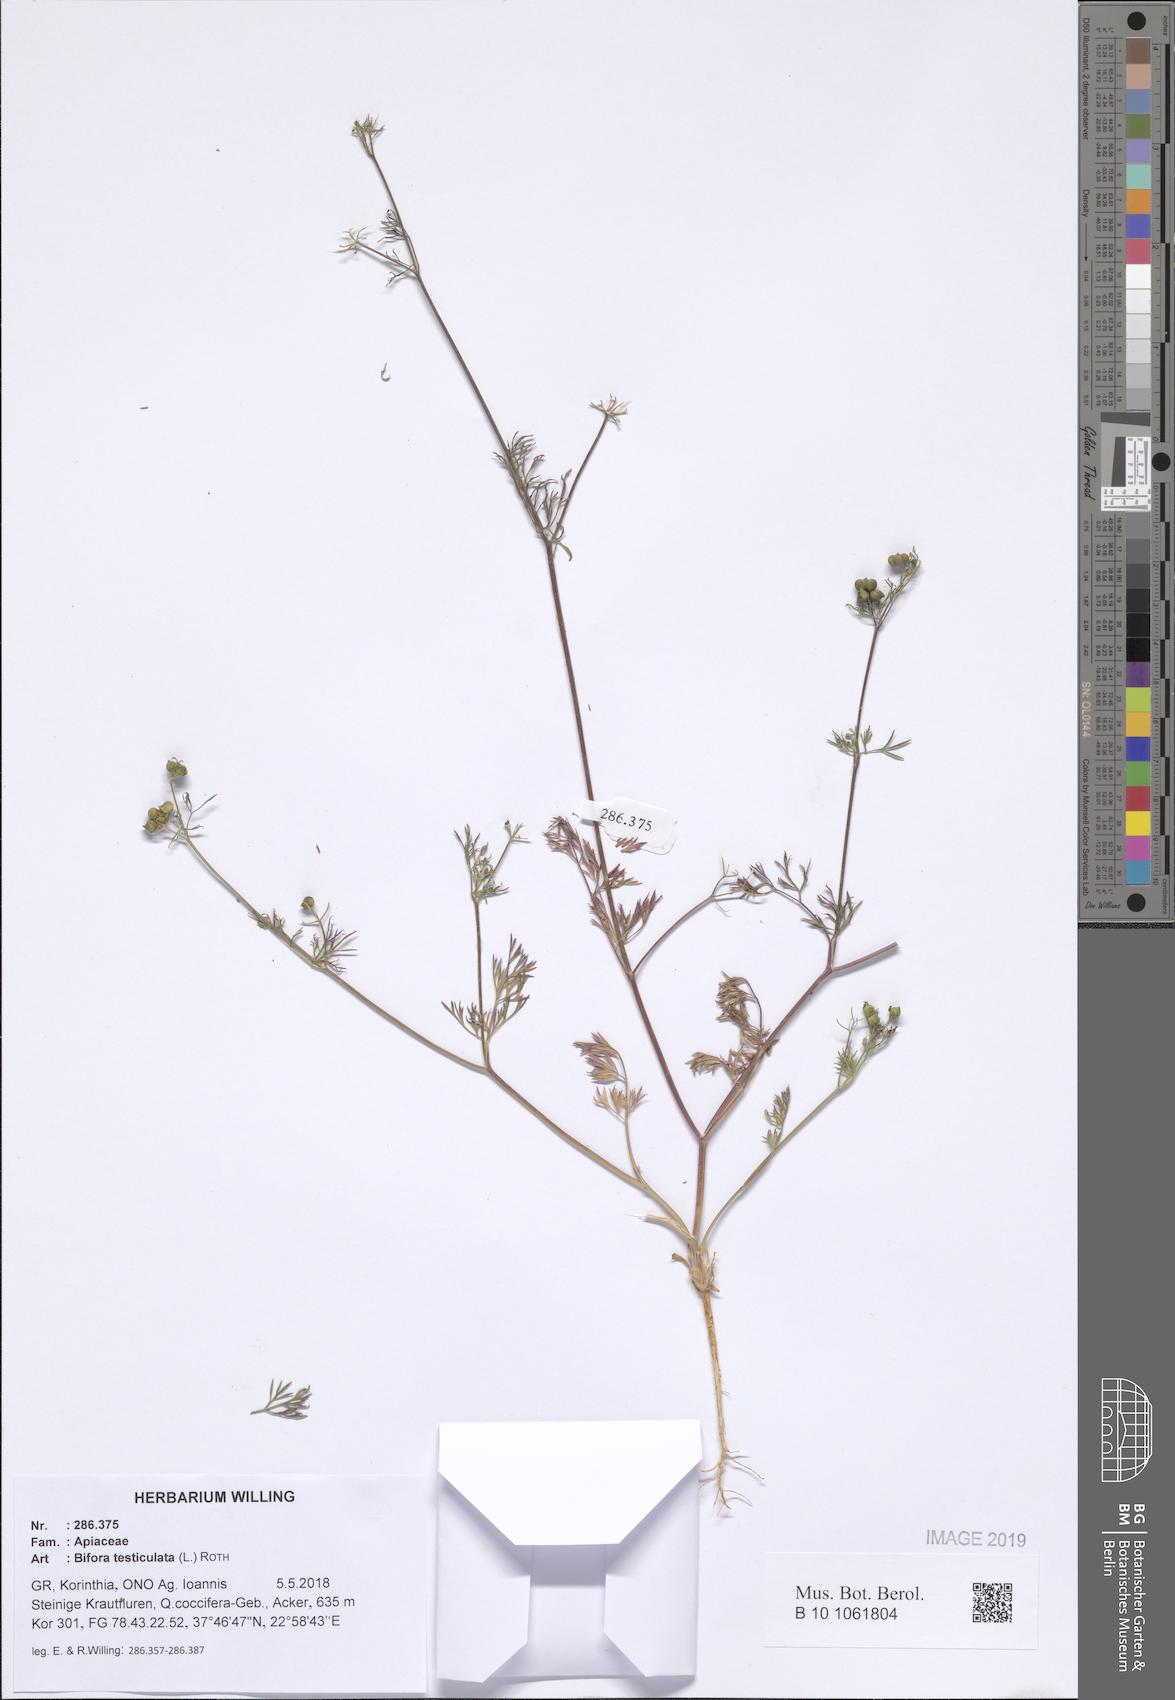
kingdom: Plantae
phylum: Tracheophyta
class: Magnoliopsida
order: Apiales
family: Apiaceae
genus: Bifora
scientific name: Bifora testiculata
